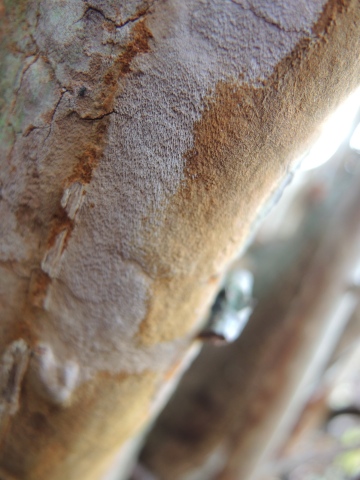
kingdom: Fungi
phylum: Basidiomycota
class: Agaricomycetes
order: Hymenochaetales
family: Hymenochaetaceae
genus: Fomitiporia
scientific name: Fomitiporia punctata
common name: pude-ildporesvamp
